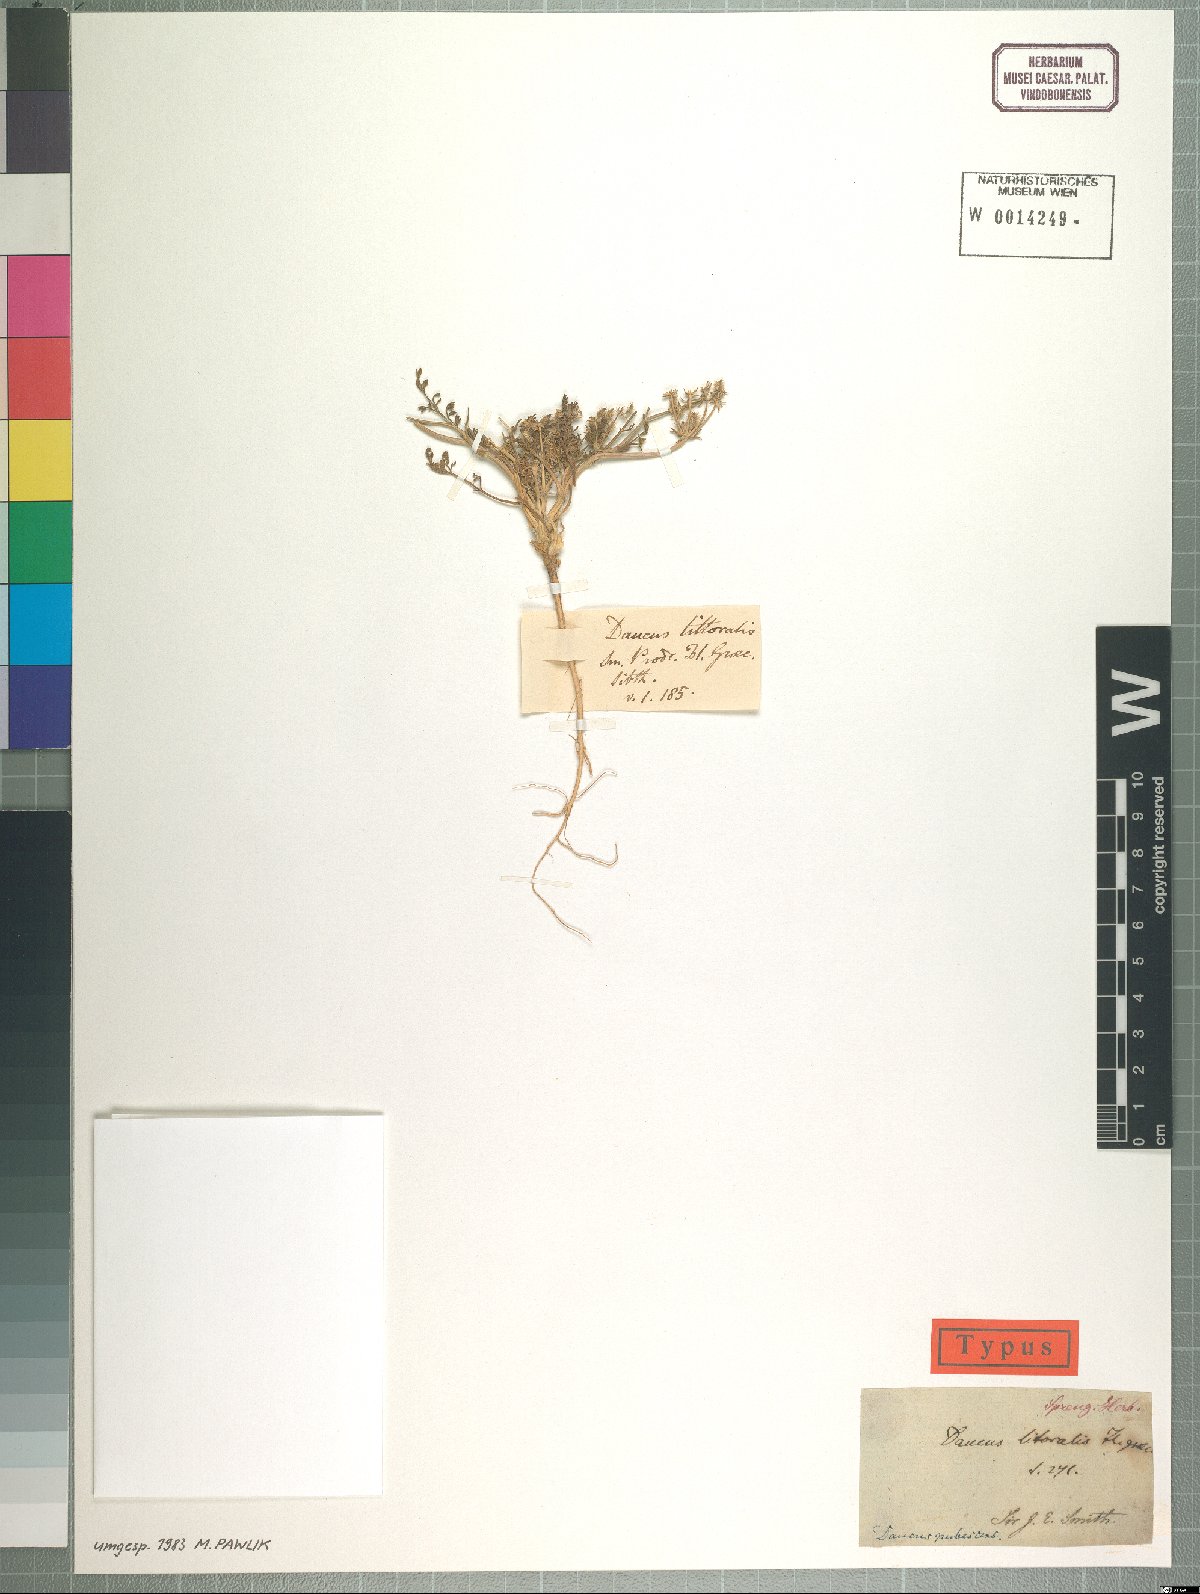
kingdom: Plantae
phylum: Tracheophyta
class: Magnoliopsida
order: Apiales
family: Apiaceae
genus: Daucus
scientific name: Daucus littoralis
